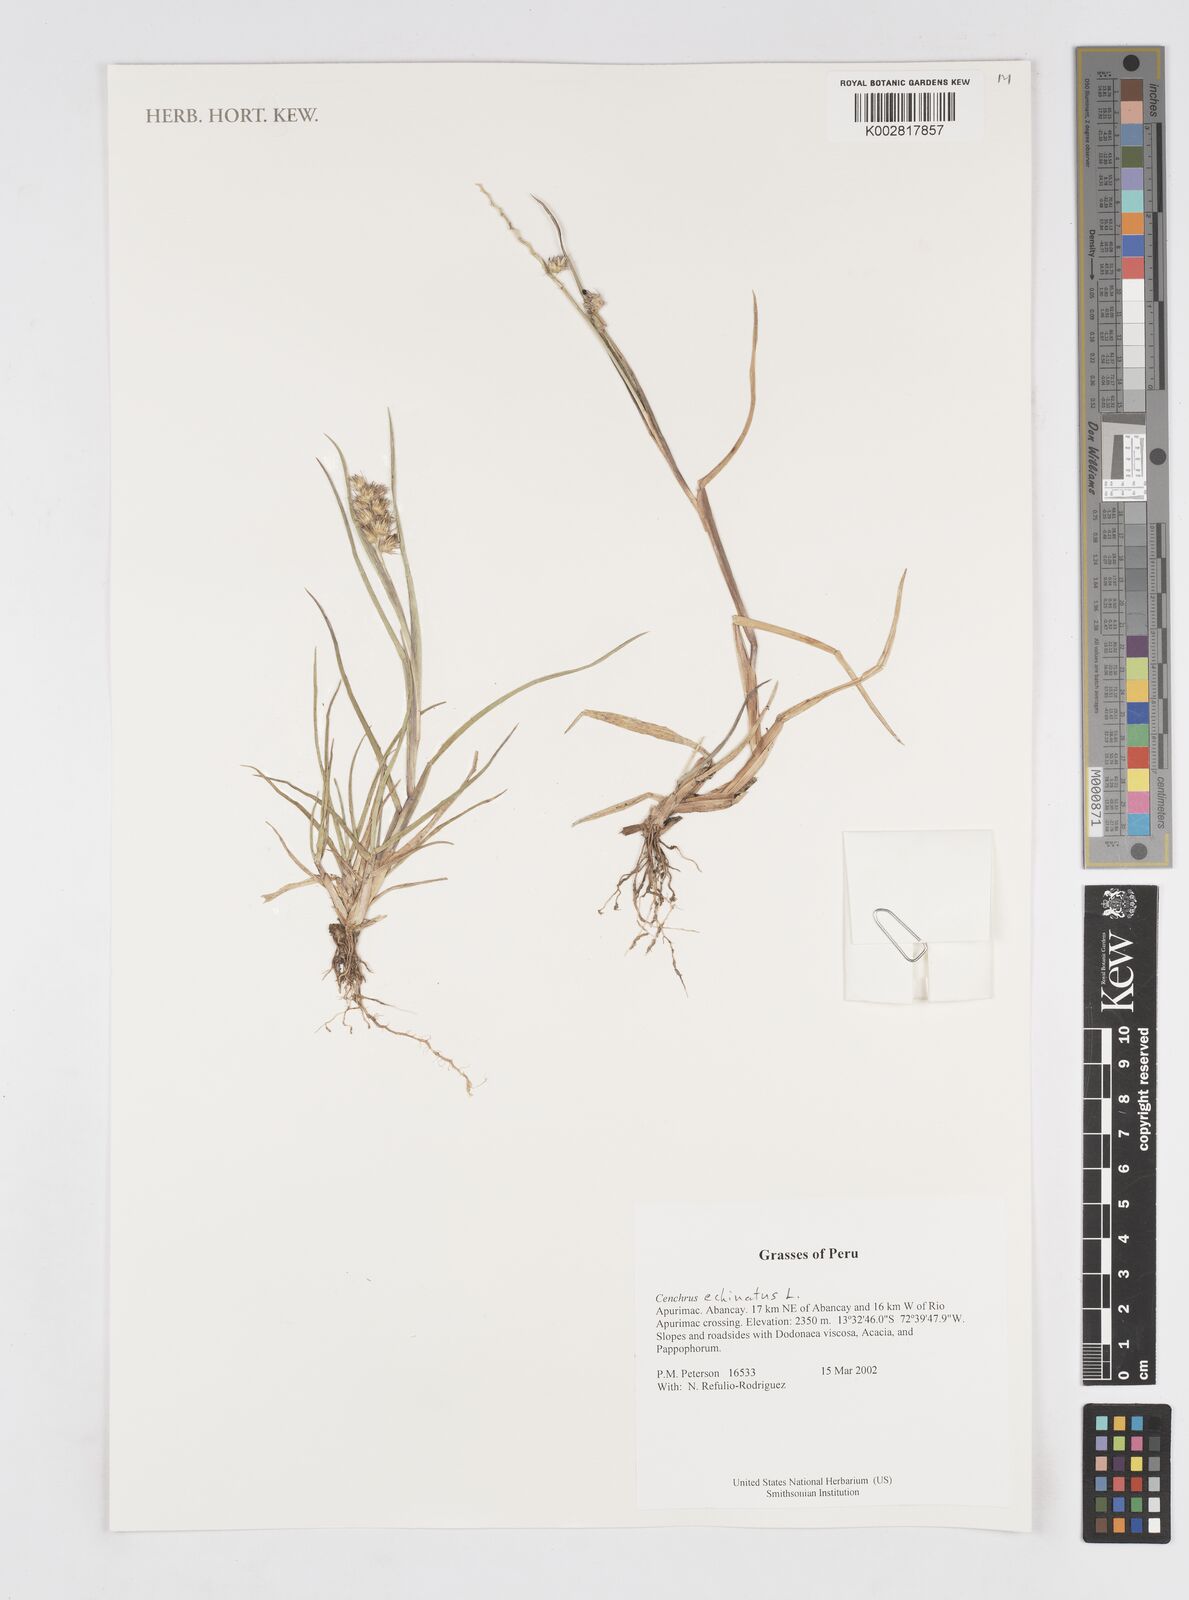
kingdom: Plantae
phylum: Tracheophyta
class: Liliopsida
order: Poales
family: Poaceae
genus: Cenchrus
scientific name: Cenchrus
